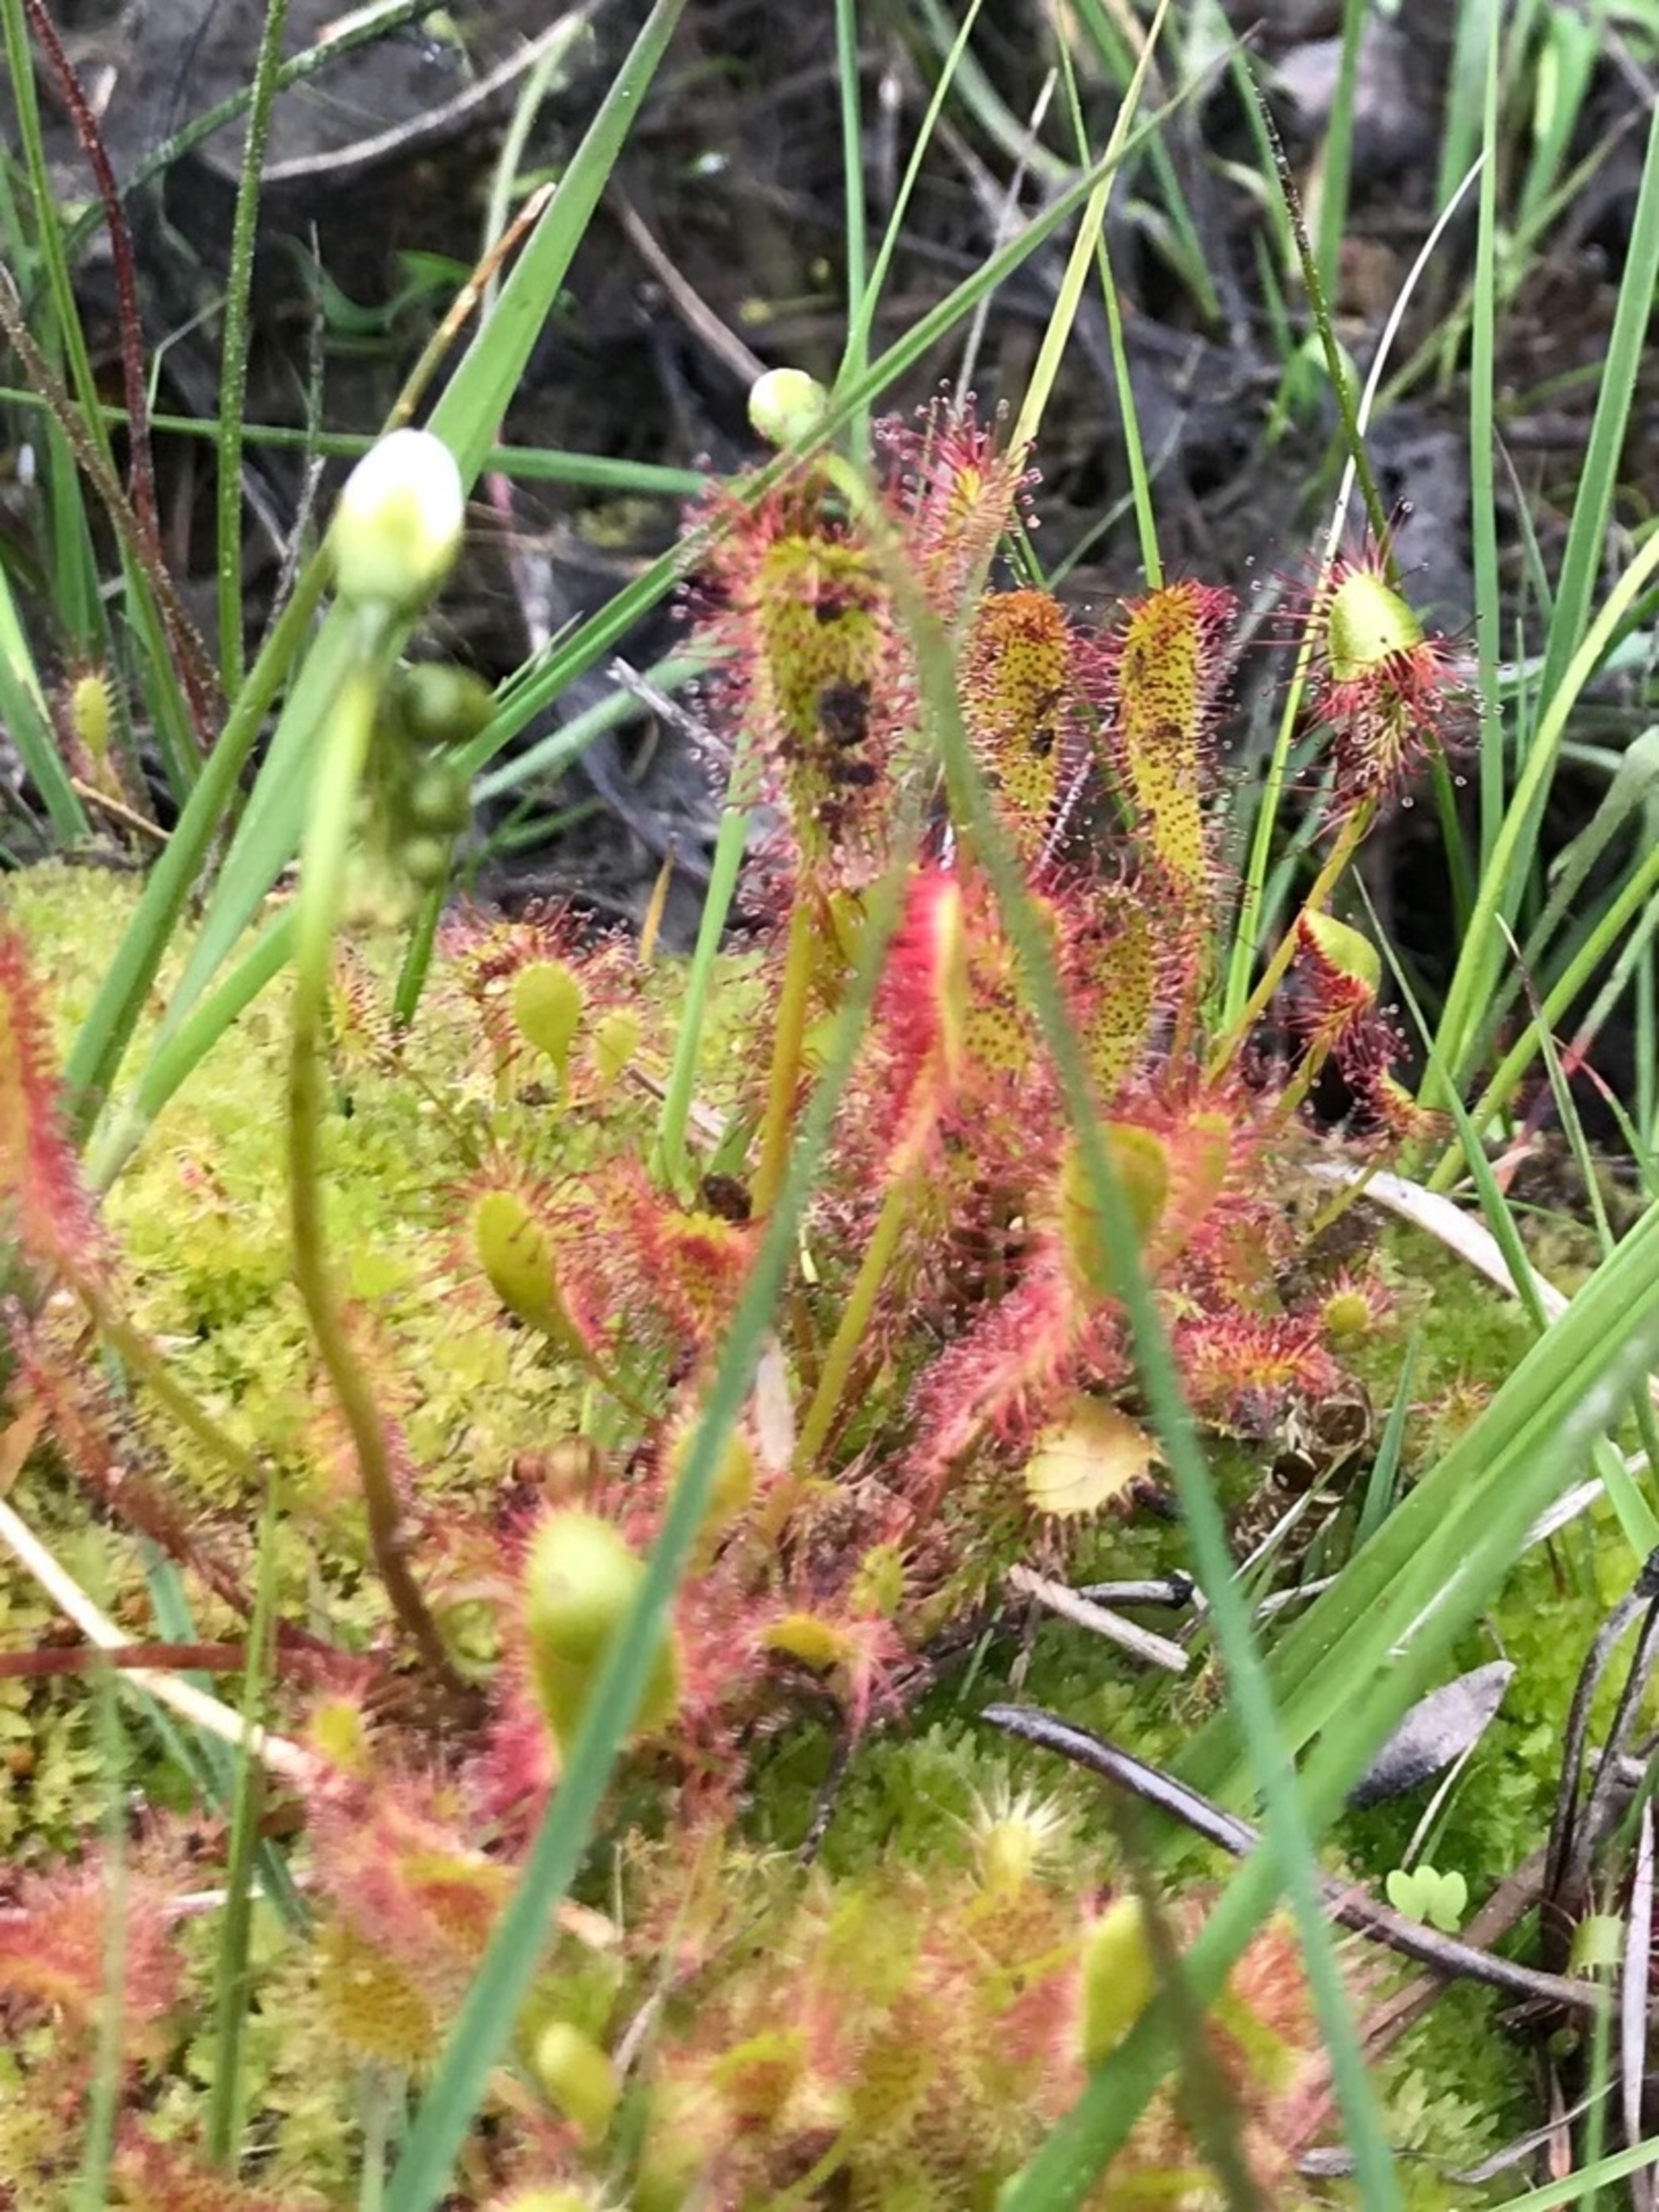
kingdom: Plantae
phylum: Tracheophyta
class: Magnoliopsida
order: Caryophyllales
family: Droseraceae
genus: Drosera
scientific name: Drosera anglica
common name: Langbladet soldug
